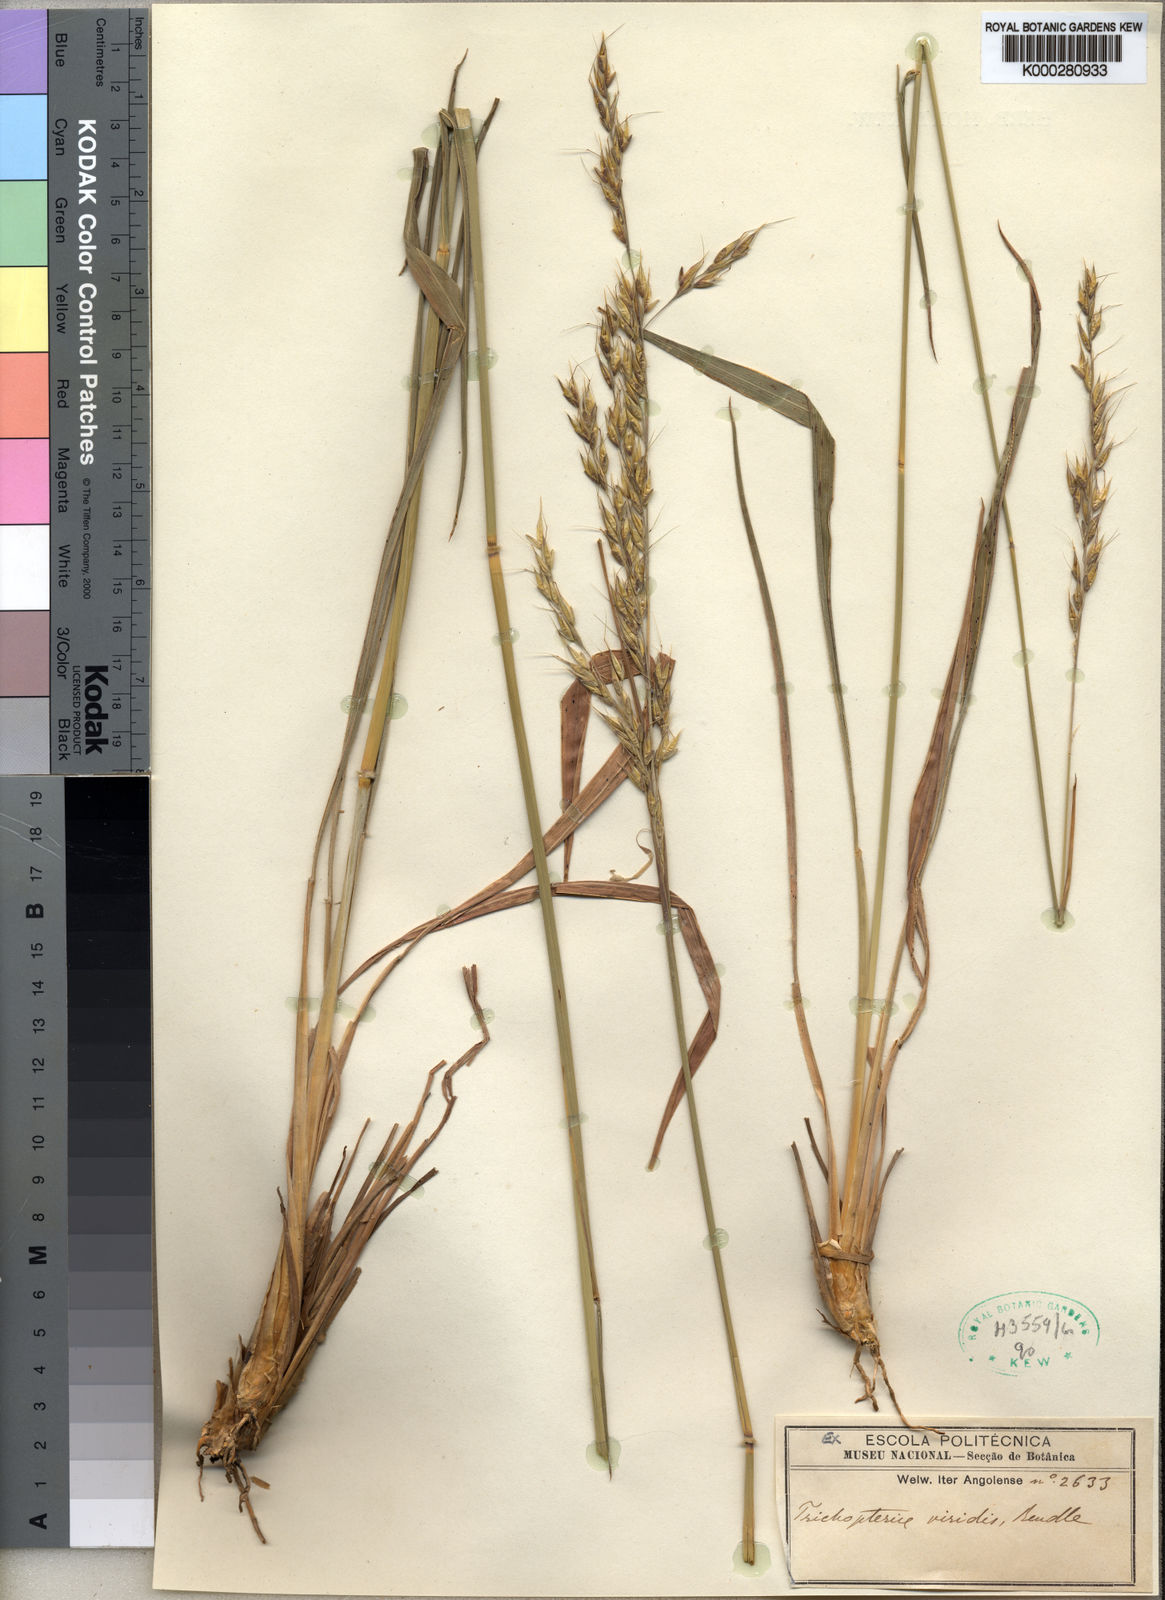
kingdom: Plantae
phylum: Tracheophyta
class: Liliopsida
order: Poales
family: Poaceae
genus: Danthoniopsis
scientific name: Danthoniopsis viridis
